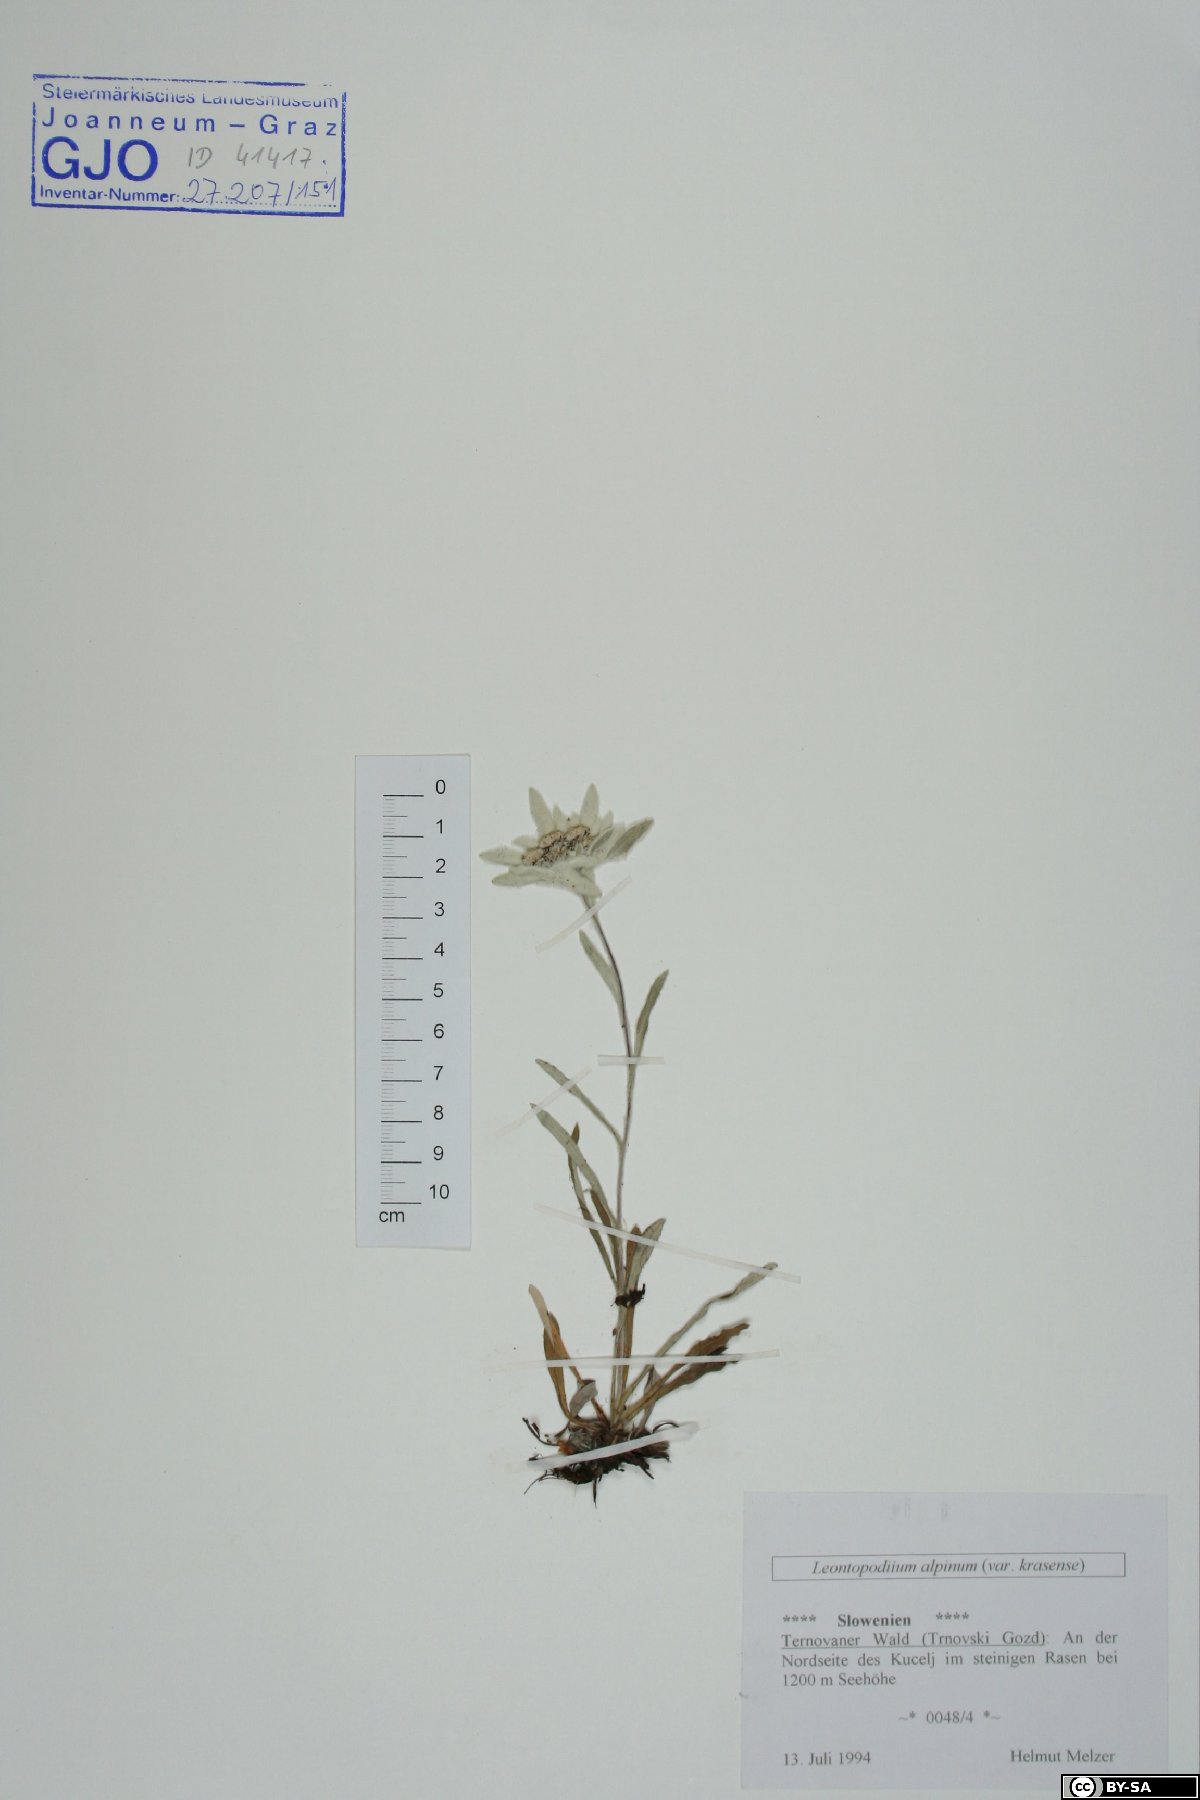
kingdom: Plantae
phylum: Tracheophyta
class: Magnoliopsida
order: Asterales
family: Asteraceae
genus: Leontopodium
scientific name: Leontopodium nivale
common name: Edelweiss
